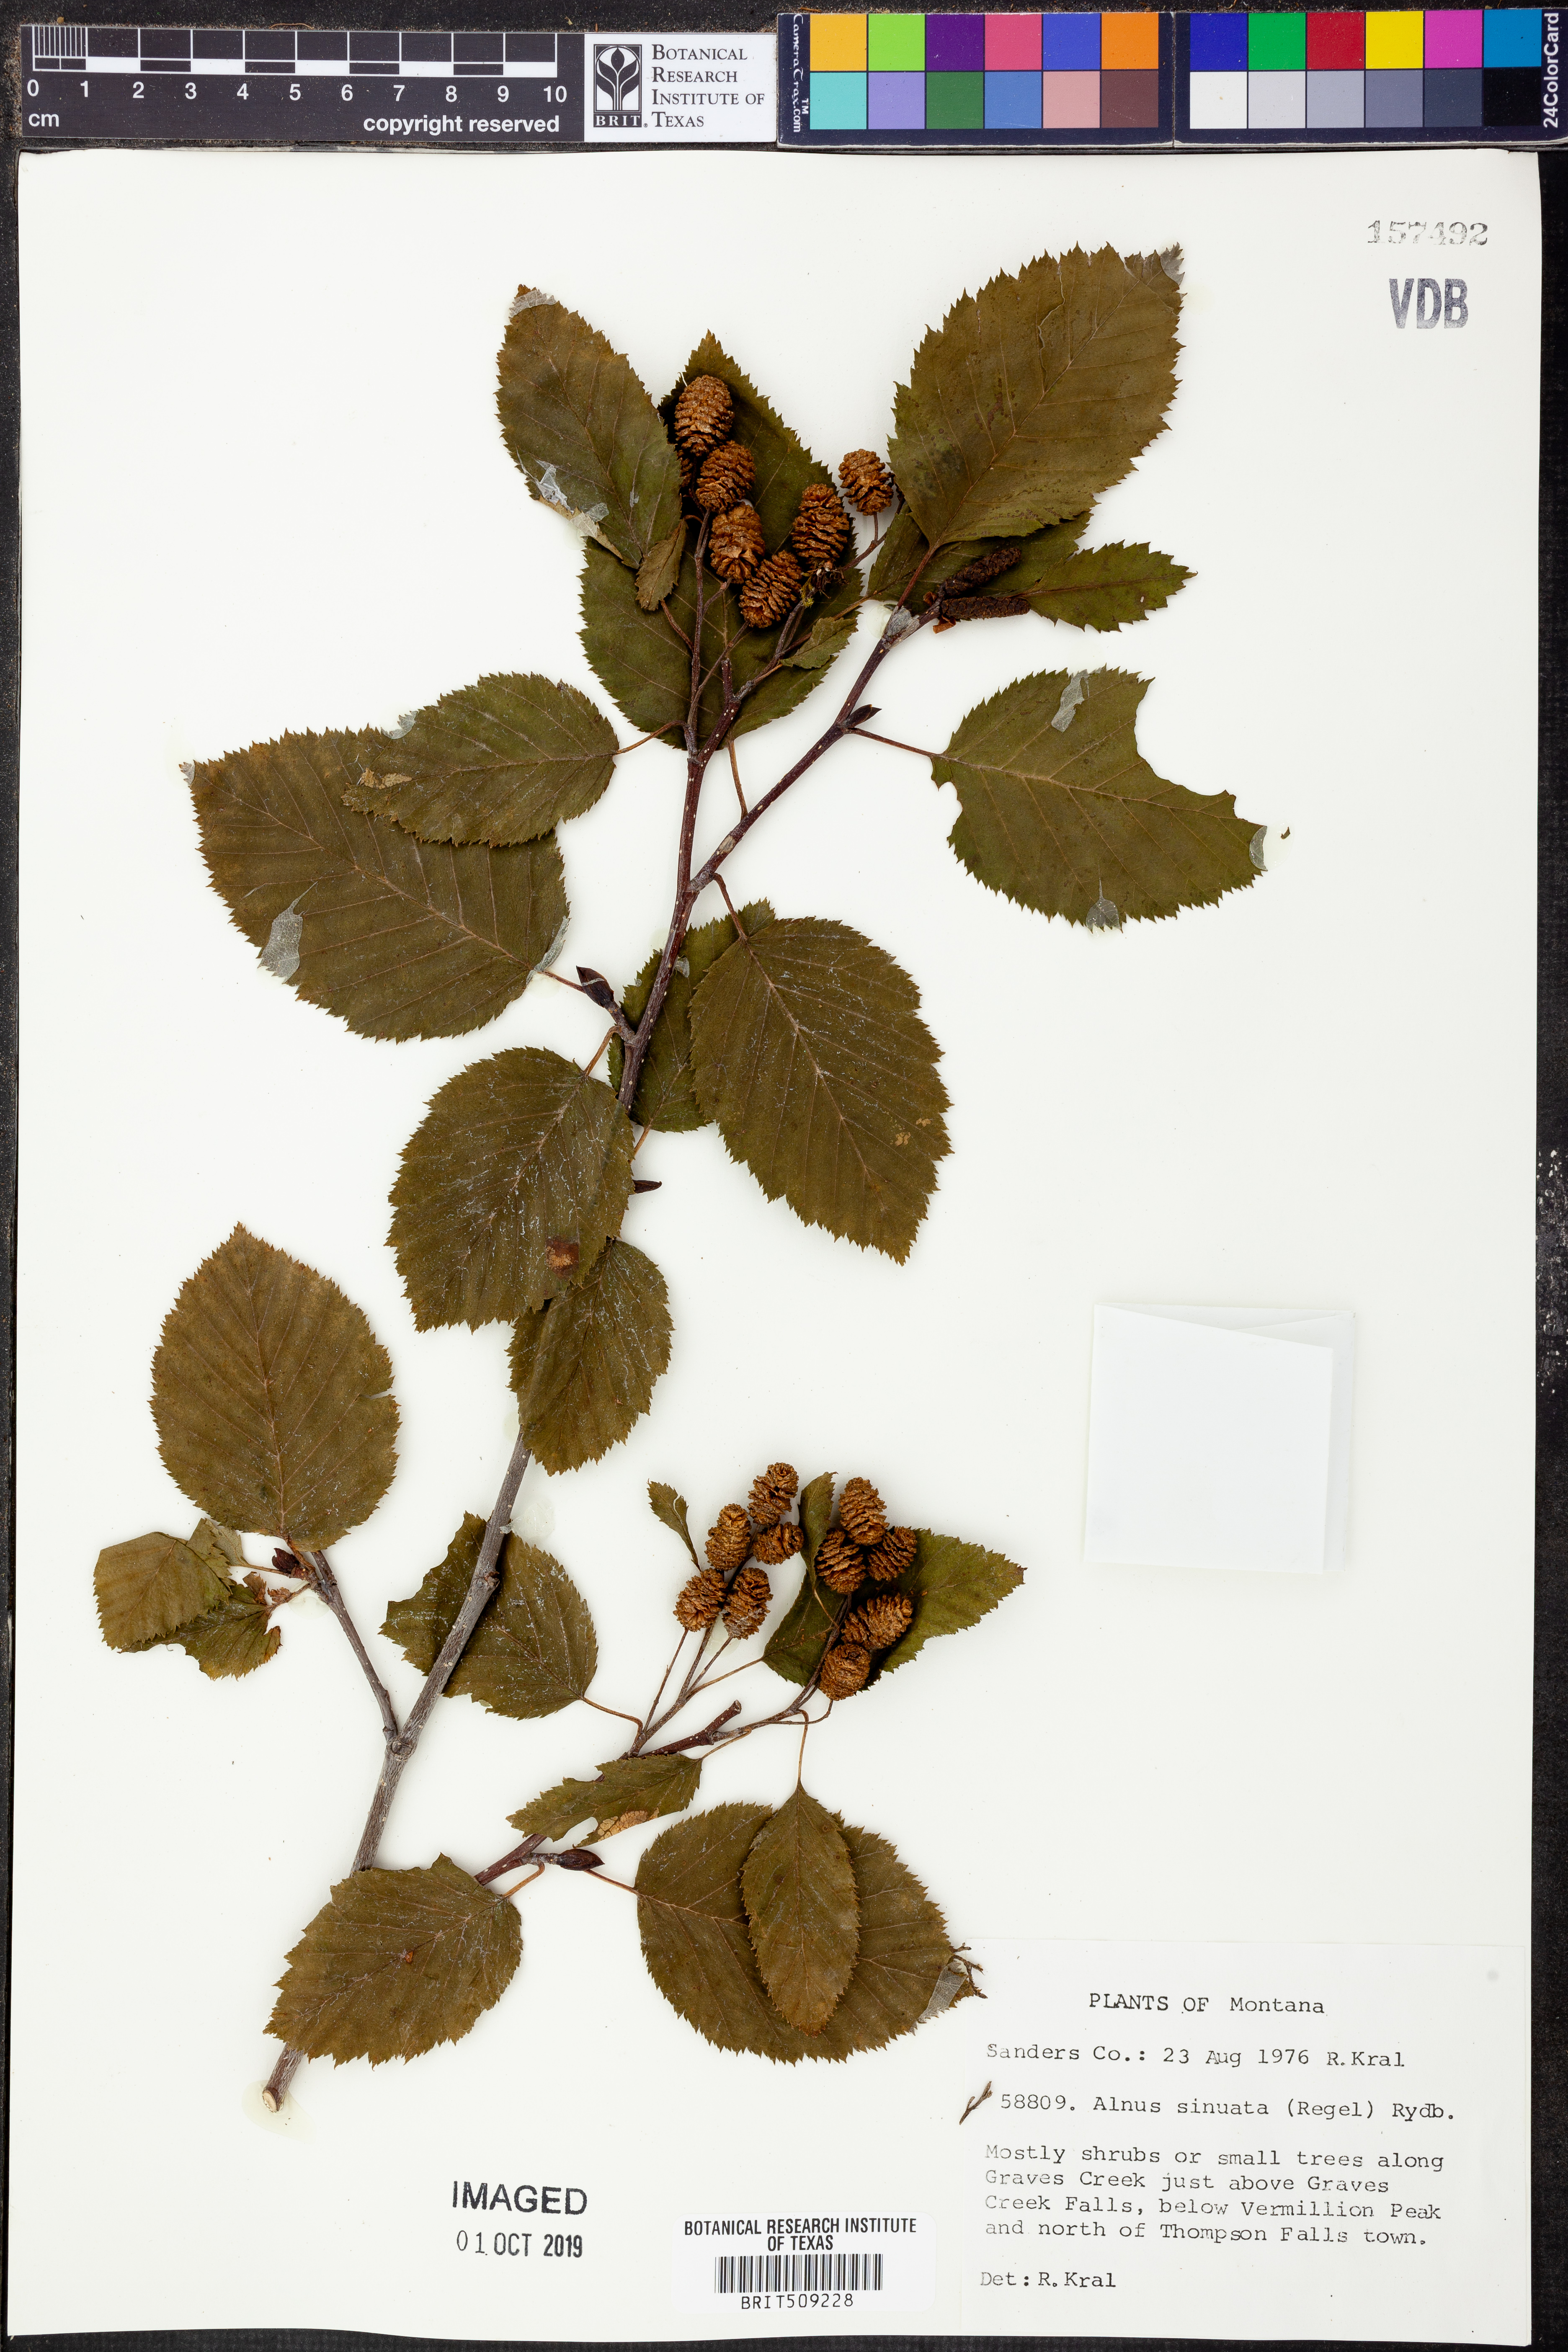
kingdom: Plantae
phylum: Tracheophyta
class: Magnoliopsida
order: Fagales
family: Betulaceae
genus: Alnus
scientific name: Alnus alnobetula
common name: Green alder
